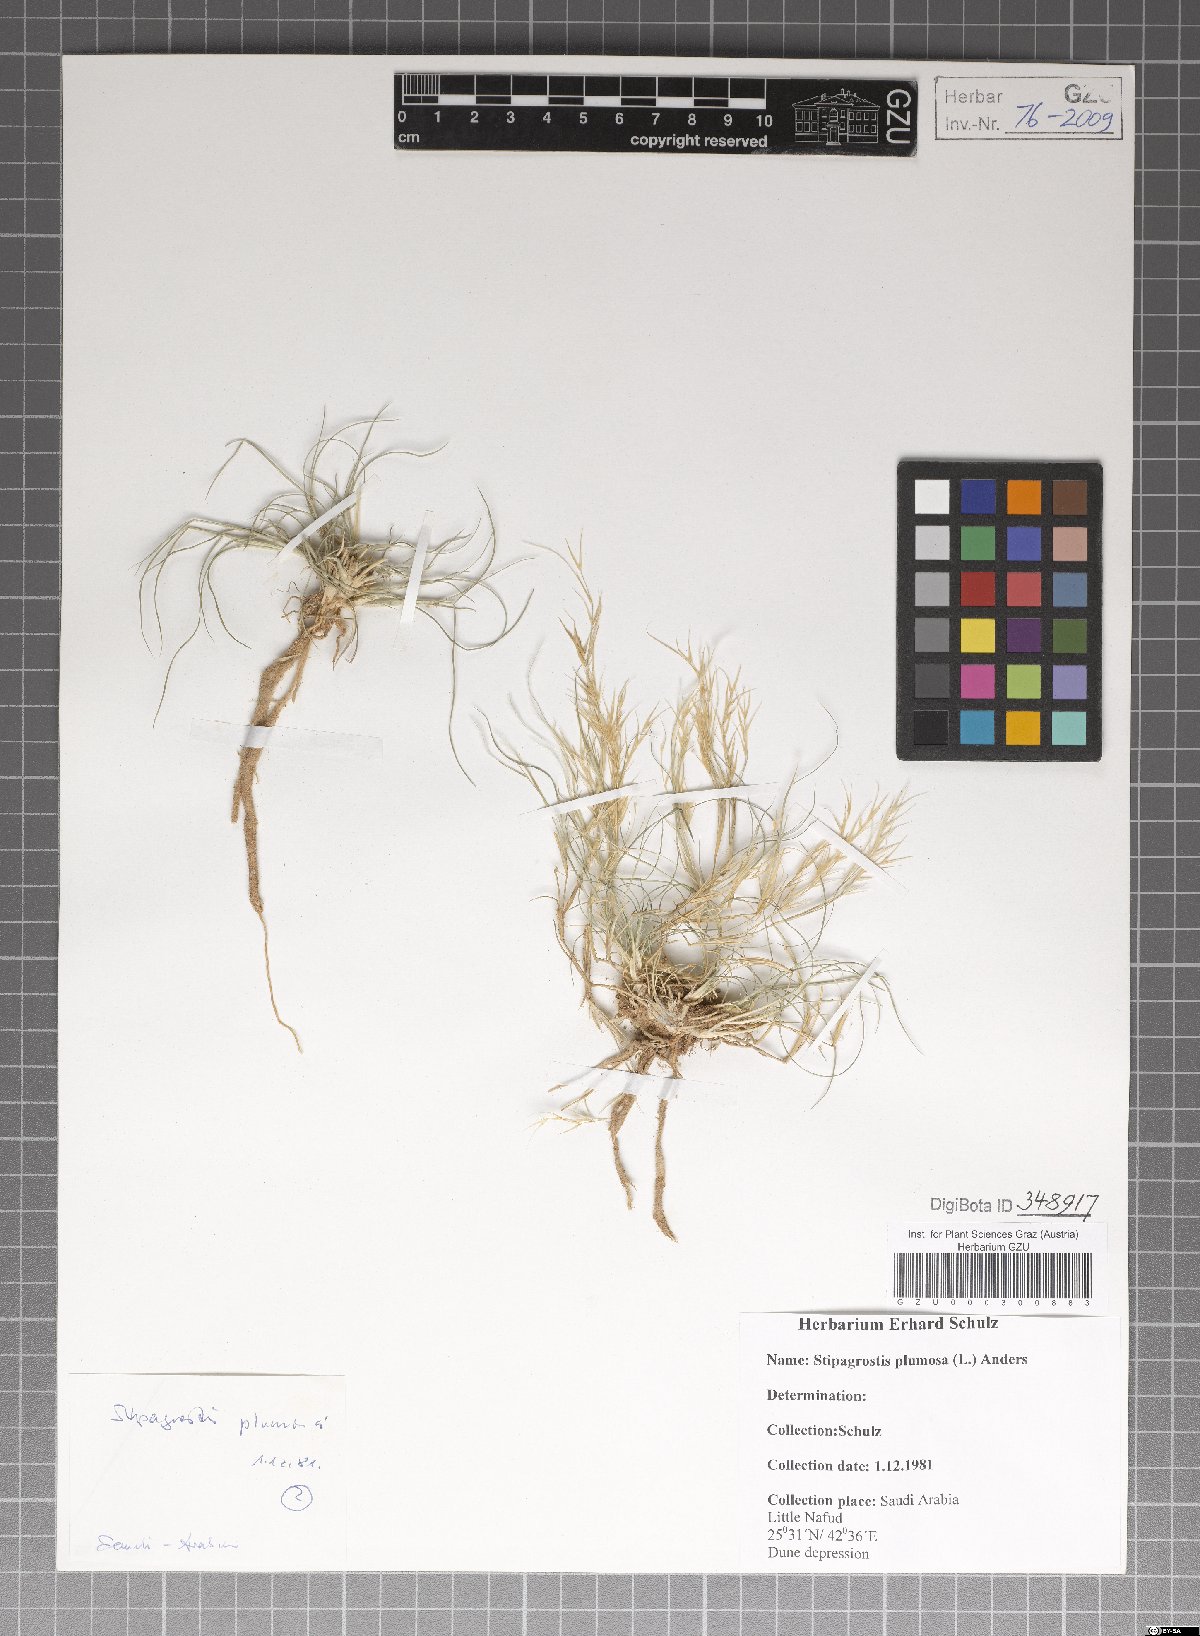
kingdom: Plantae
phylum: Tracheophyta
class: Liliopsida
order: Poales
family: Poaceae
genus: Stipagrostis
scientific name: Stipagrostis plumosa
